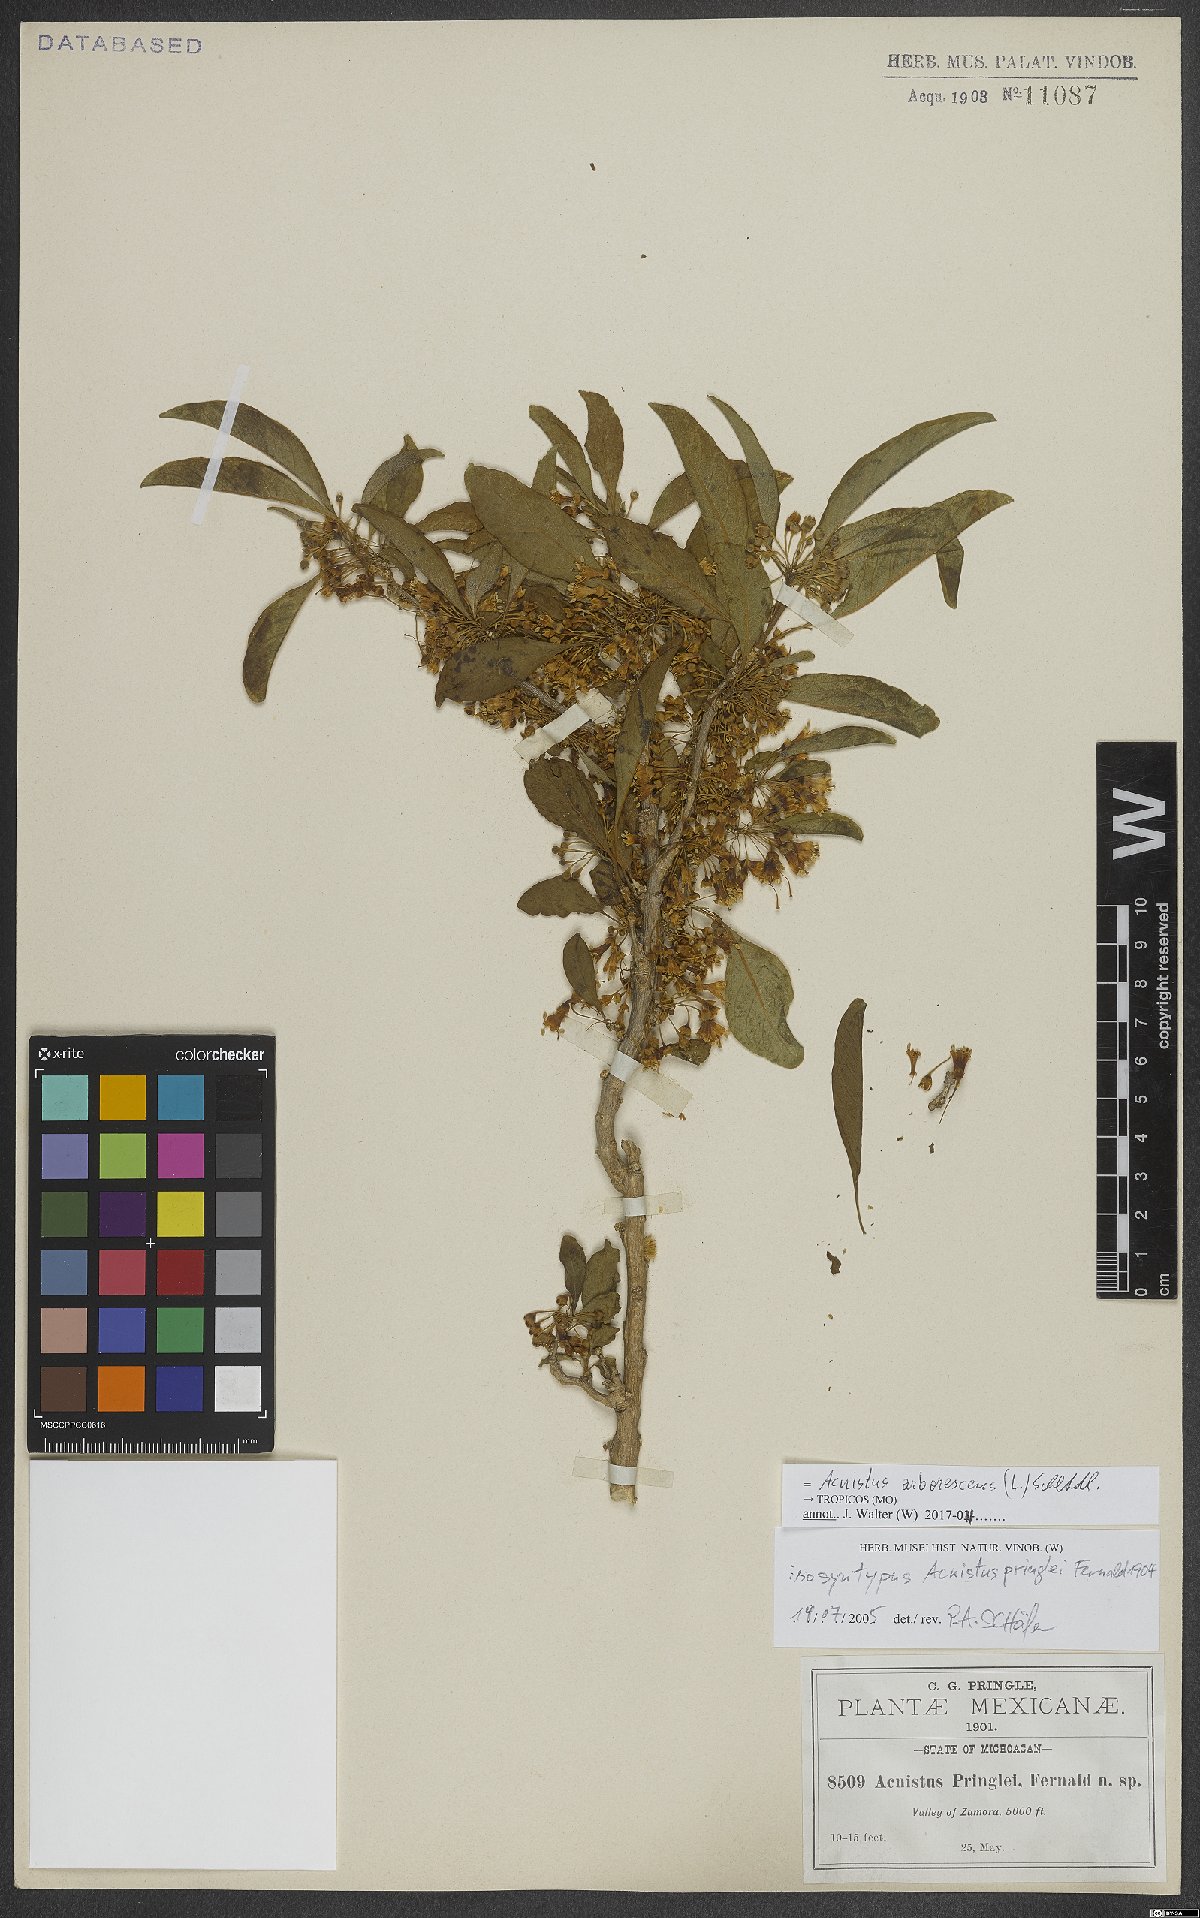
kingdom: Plantae
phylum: Tracheophyta
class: Magnoliopsida
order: Solanales
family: Solanaceae
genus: Iochroma
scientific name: Iochroma arborescens
